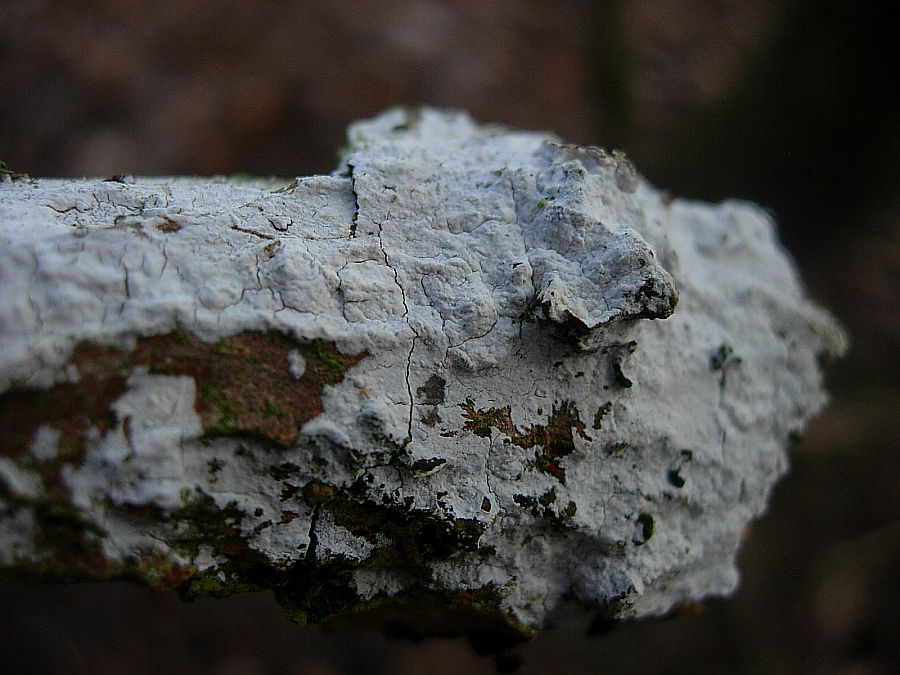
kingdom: Fungi
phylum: Basidiomycota
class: Agaricomycetes
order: Corticiales
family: Corticiaceae
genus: Lyomyces
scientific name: Lyomyces sambuci
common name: almindelig hyldehinde
